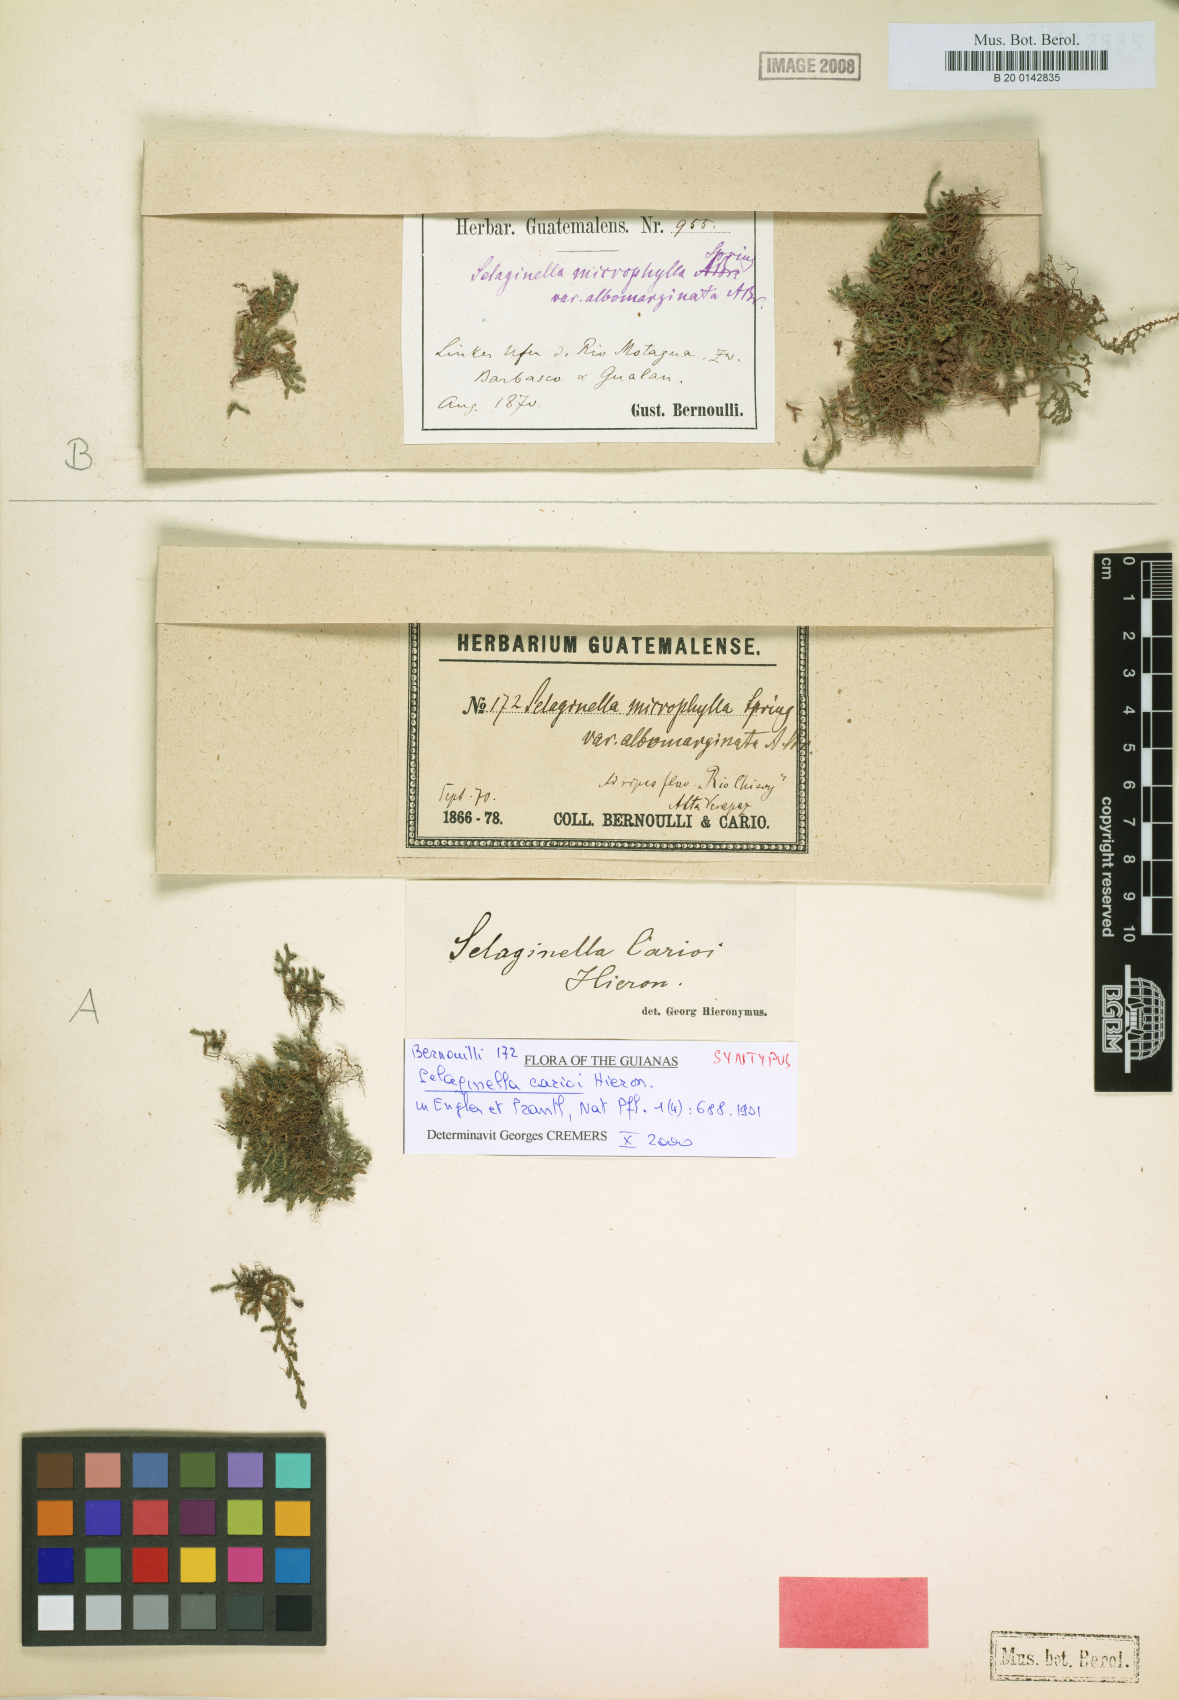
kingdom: Plantae
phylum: Tracheophyta
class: Lycopodiopsida
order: Selaginellales
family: Selaginellaceae
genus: Selaginella
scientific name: Selaginella carioi
